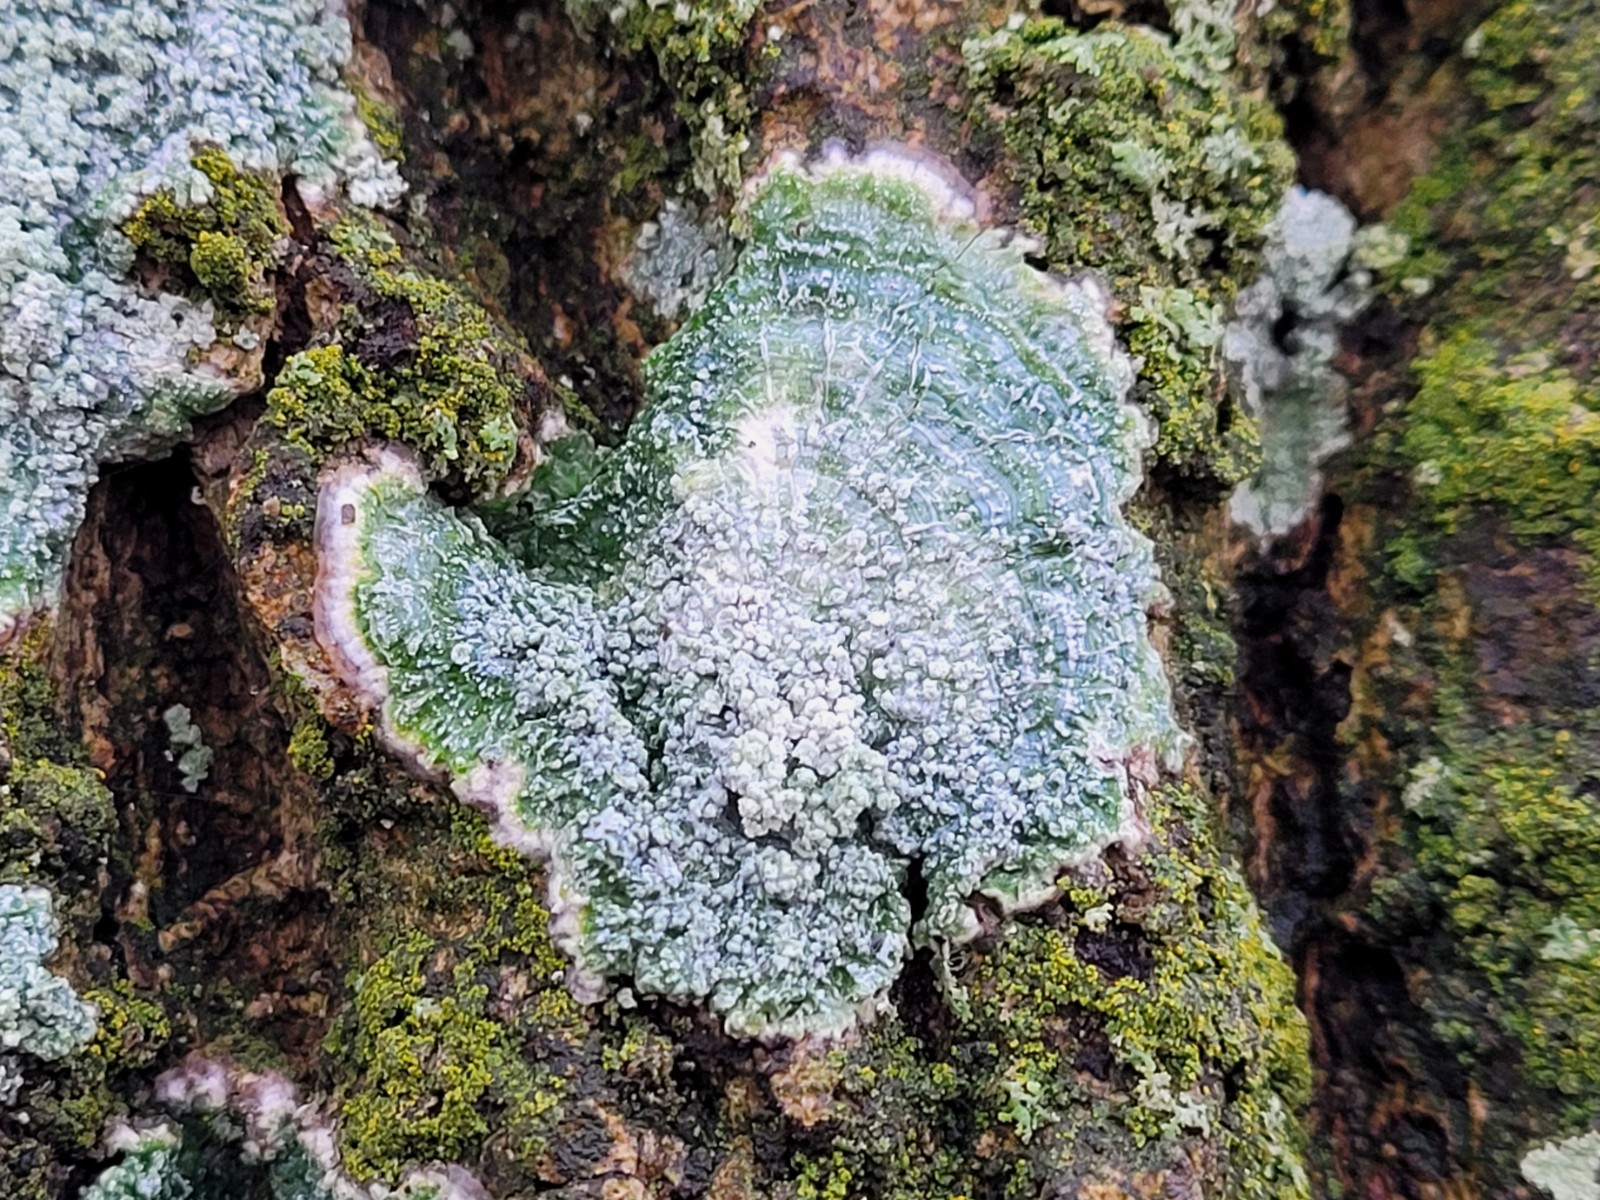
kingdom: Fungi
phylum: Ascomycota
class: Lecanoromycetes
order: Pertusariales
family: Pertusariaceae
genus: Lepra
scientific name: Lepra albescens
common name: hvidmelet prikvortelav
